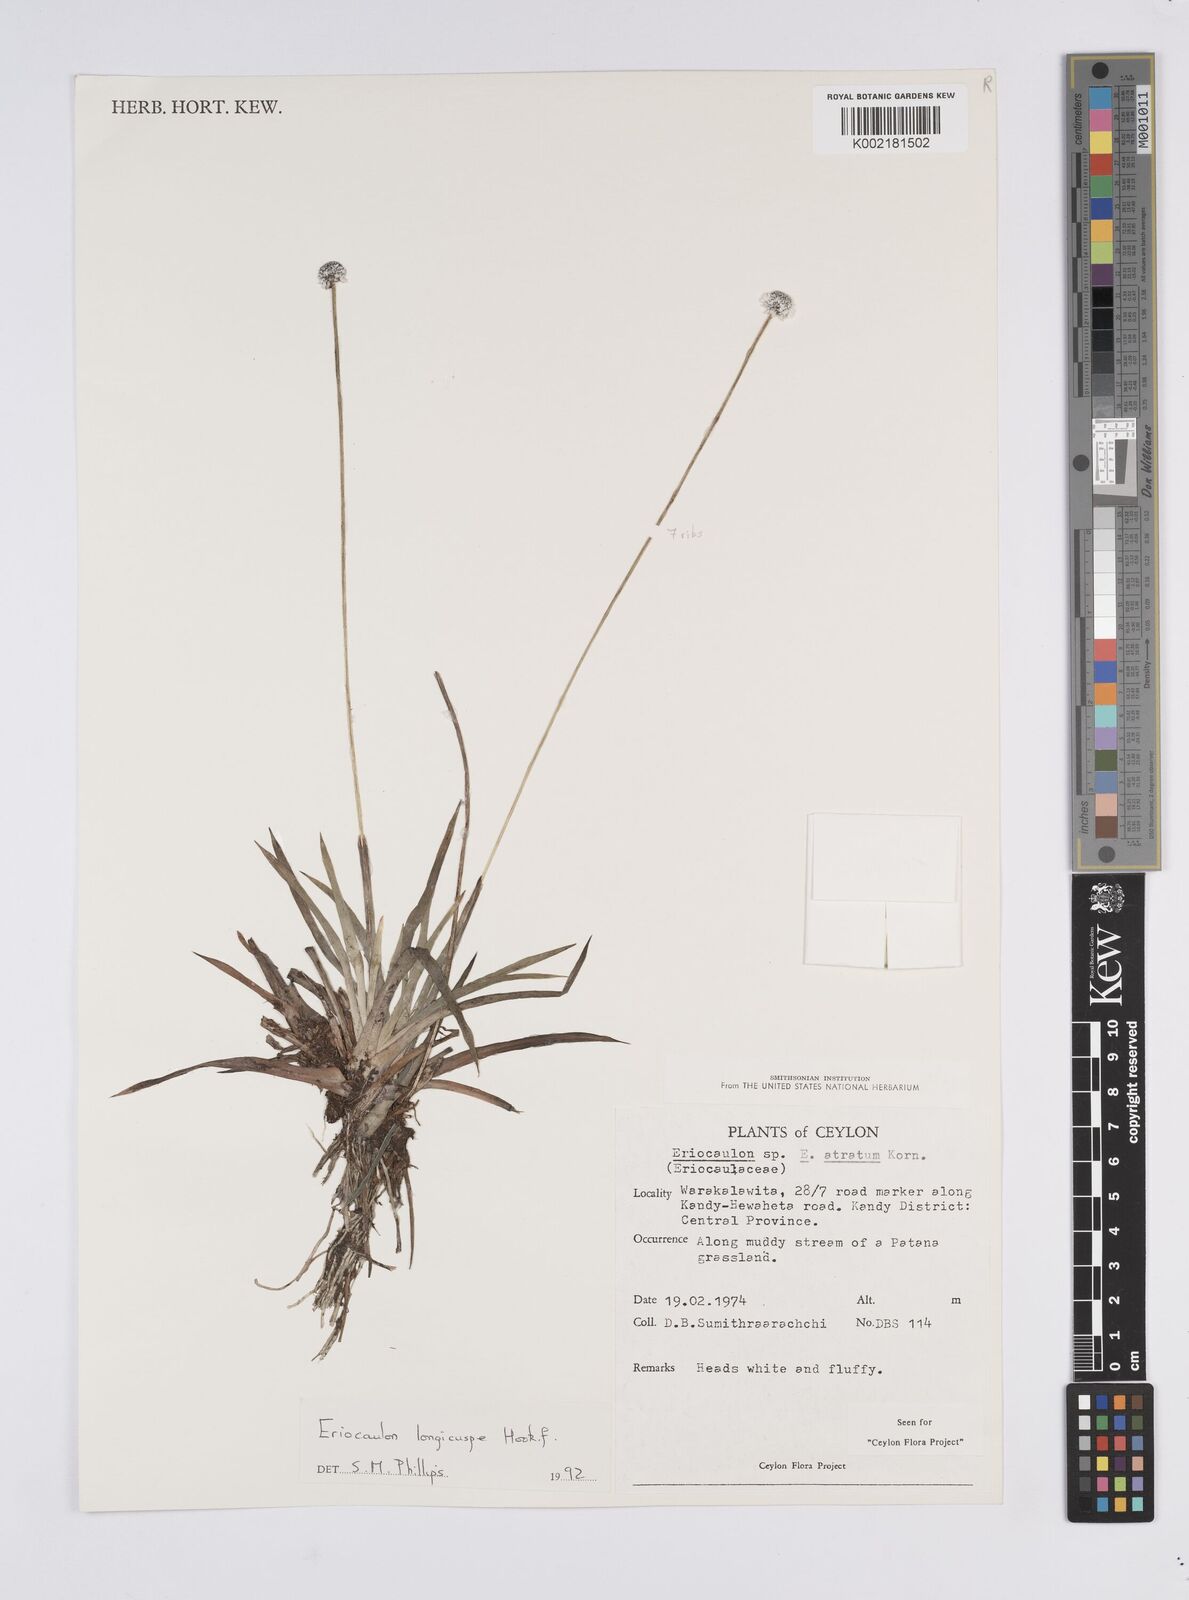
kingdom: Plantae
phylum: Tracheophyta
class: Liliopsida
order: Poales
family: Eriocaulaceae
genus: Eriocaulon
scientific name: Eriocaulon longicuspe
